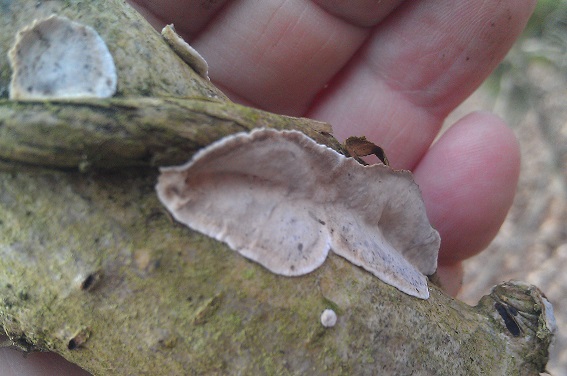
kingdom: Fungi
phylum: Basidiomycota
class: Agaricomycetes
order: Russulales
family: Stereaceae
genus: Stereum
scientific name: Stereum rugosum
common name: rynket lædersvamp
